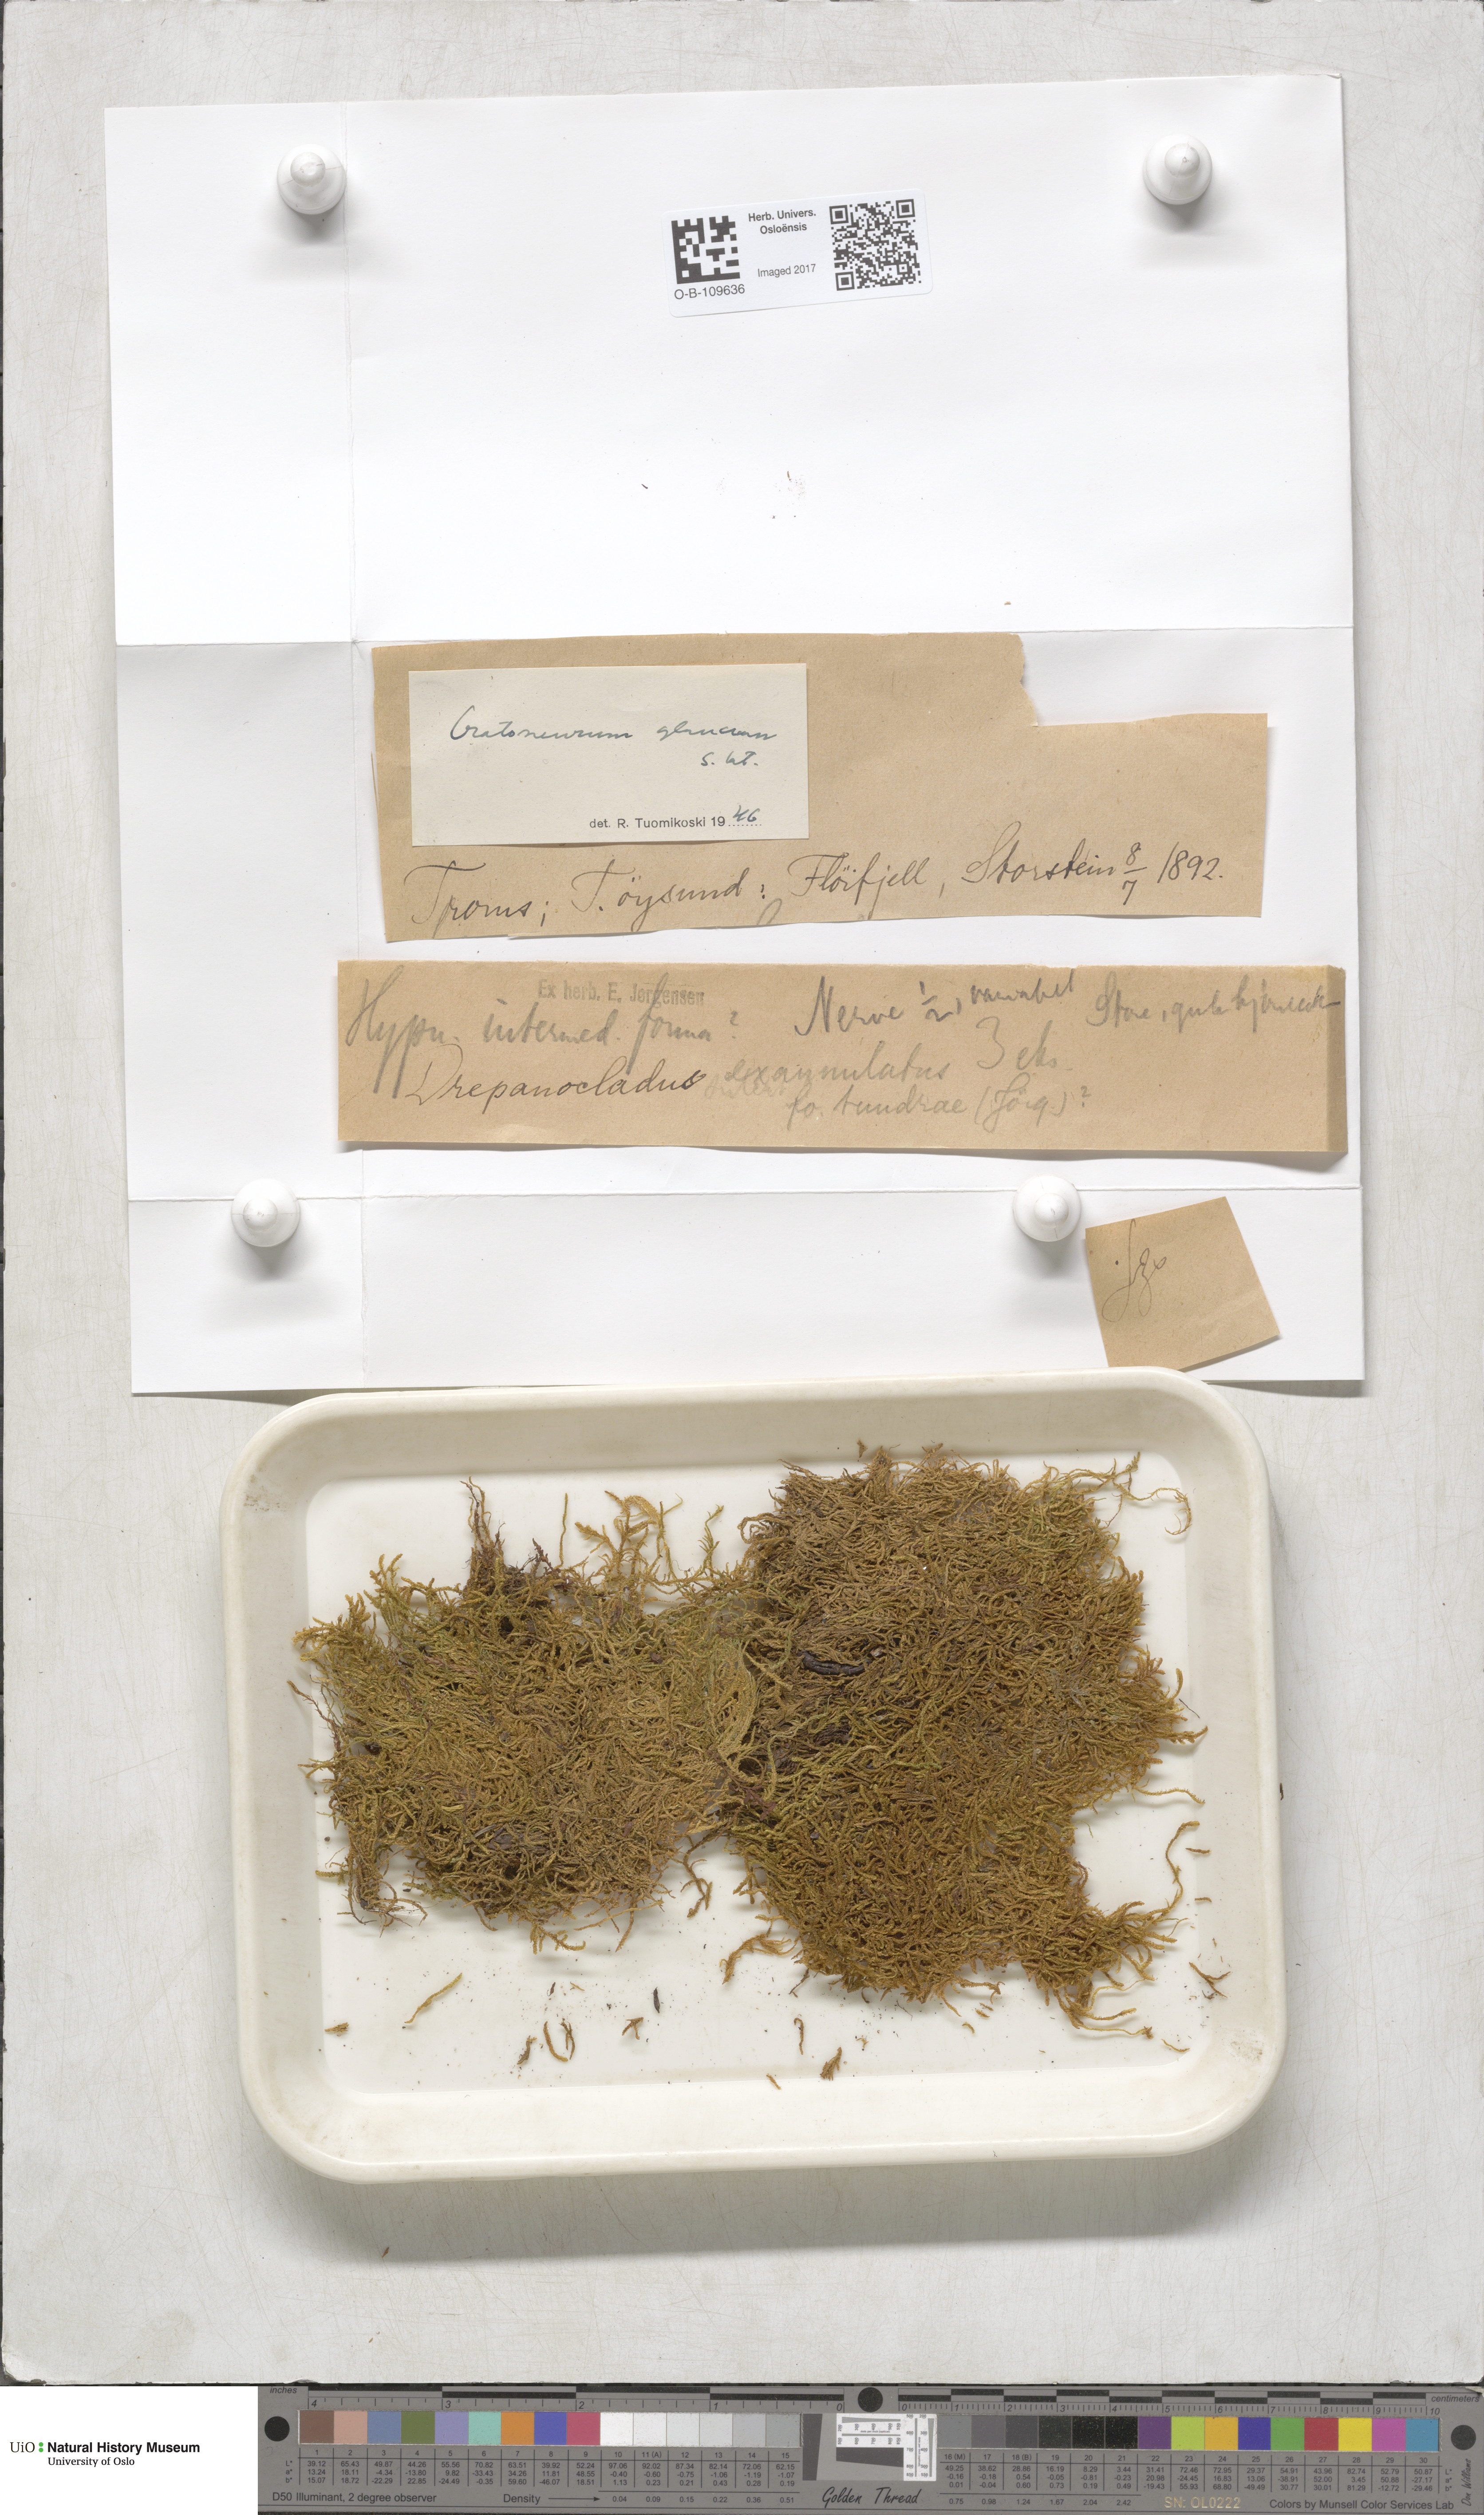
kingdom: Plantae
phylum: Bryophyta
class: Bryopsida
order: Hypnales
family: Amblystegiaceae
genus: Palustriella
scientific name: Palustriella commutata
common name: Curled hook-moss
